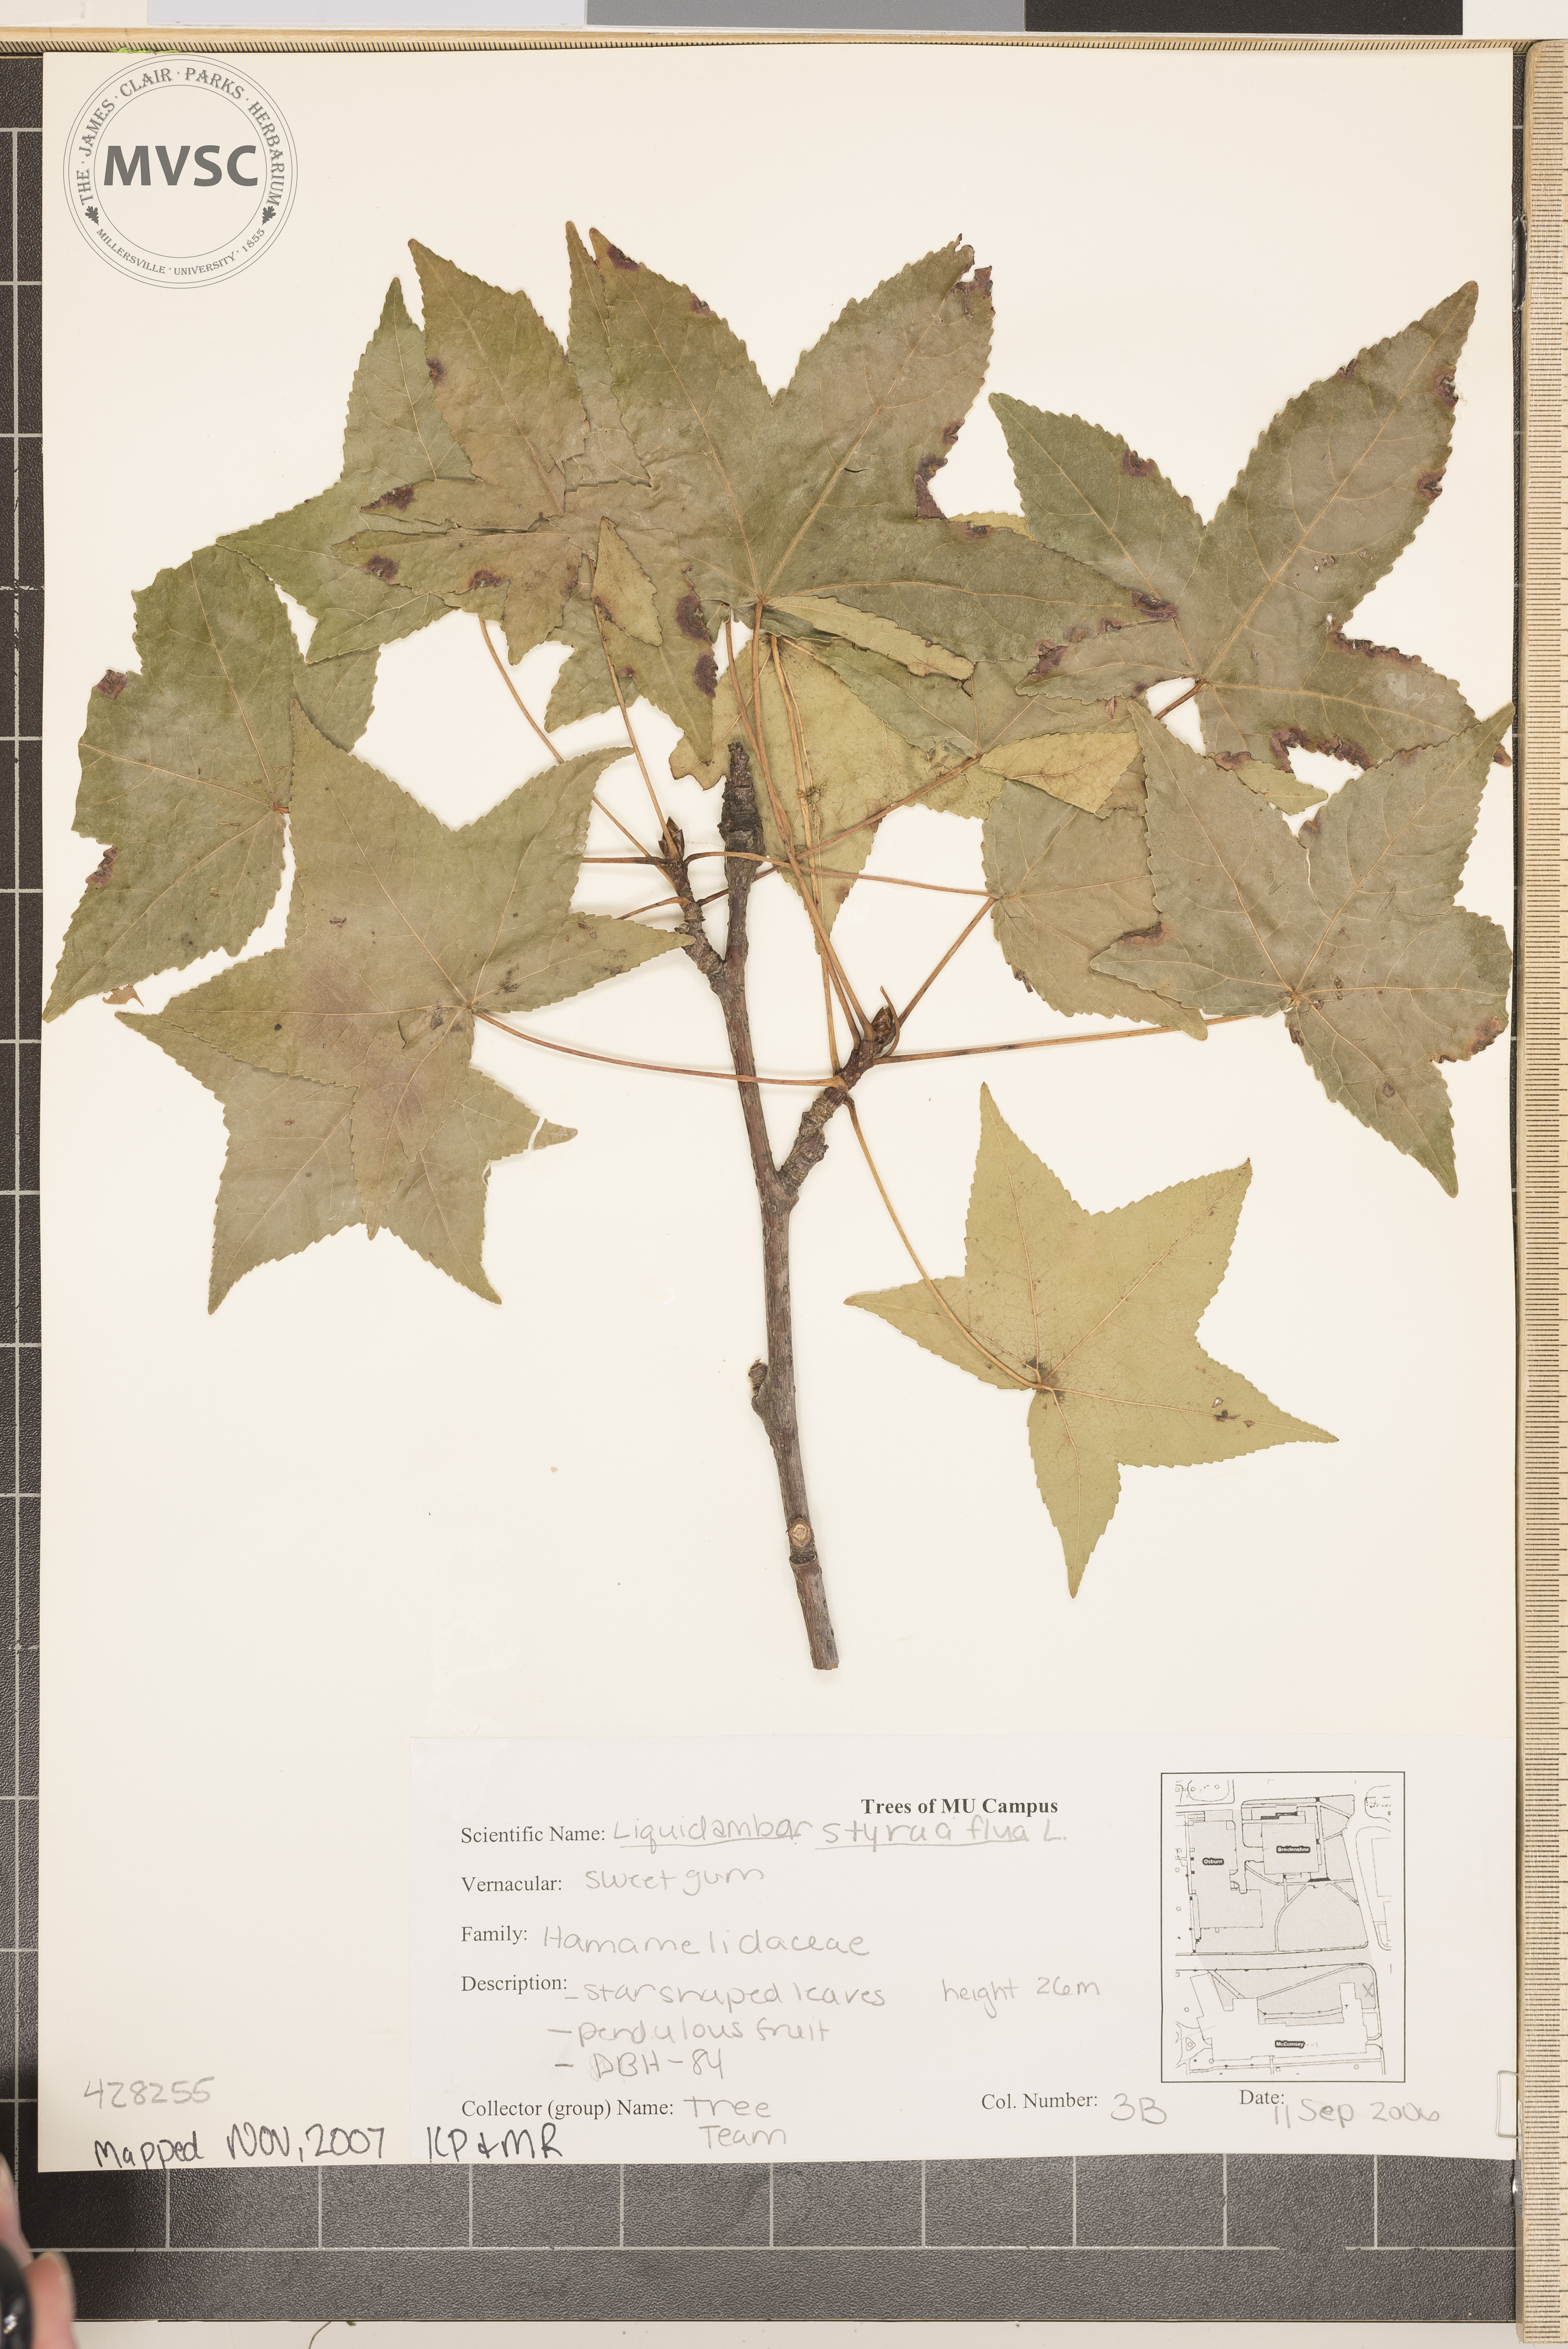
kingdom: Plantae
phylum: Tracheophyta
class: Magnoliopsida
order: Saxifragales
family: Altingiaceae
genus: Liquidambar
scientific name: Liquidambar styraciflua
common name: Sweetgum
